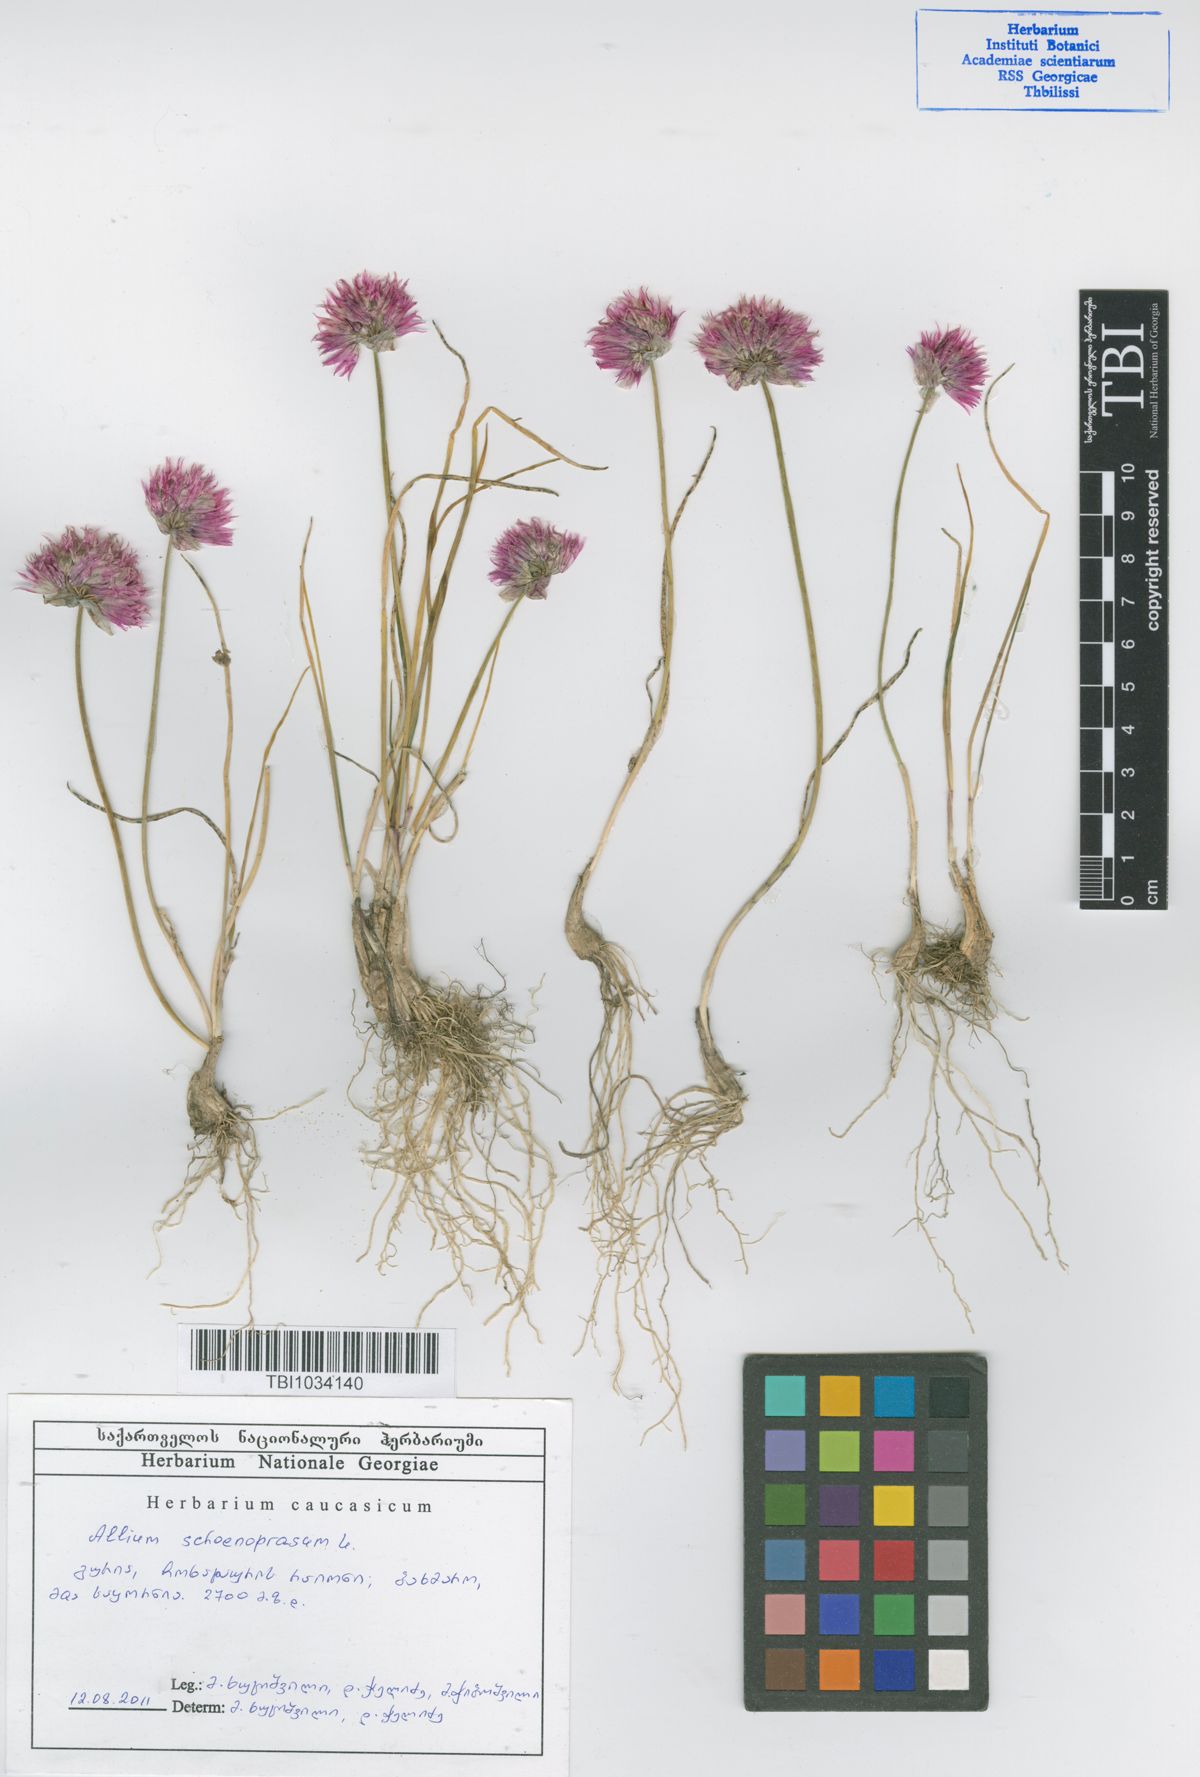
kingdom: Plantae
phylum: Tracheophyta
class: Liliopsida
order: Asparagales
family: Amaryllidaceae
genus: Allium
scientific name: Allium schoenoprasum
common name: Chives
